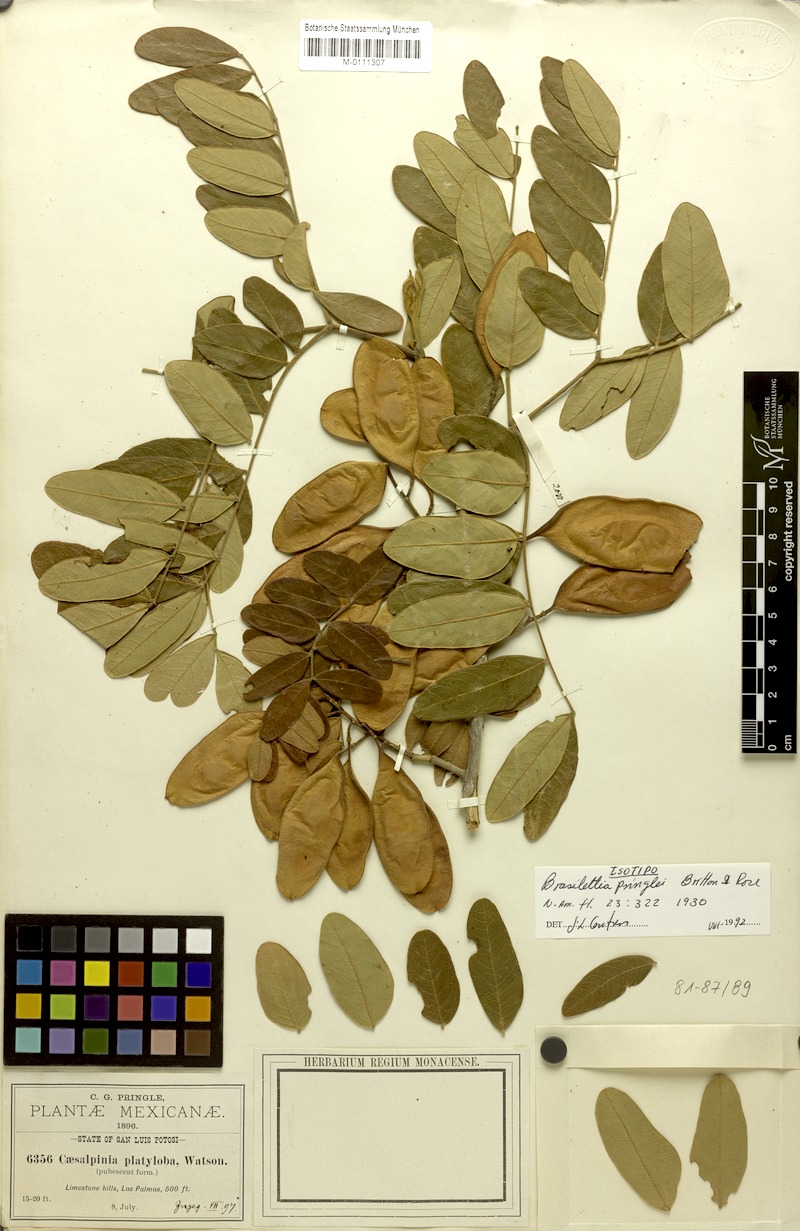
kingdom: Plantae
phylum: Tracheophyta
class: Magnoliopsida
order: Fabales
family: Fabaceae
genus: Coulteria
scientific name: Coulteria pringlei
